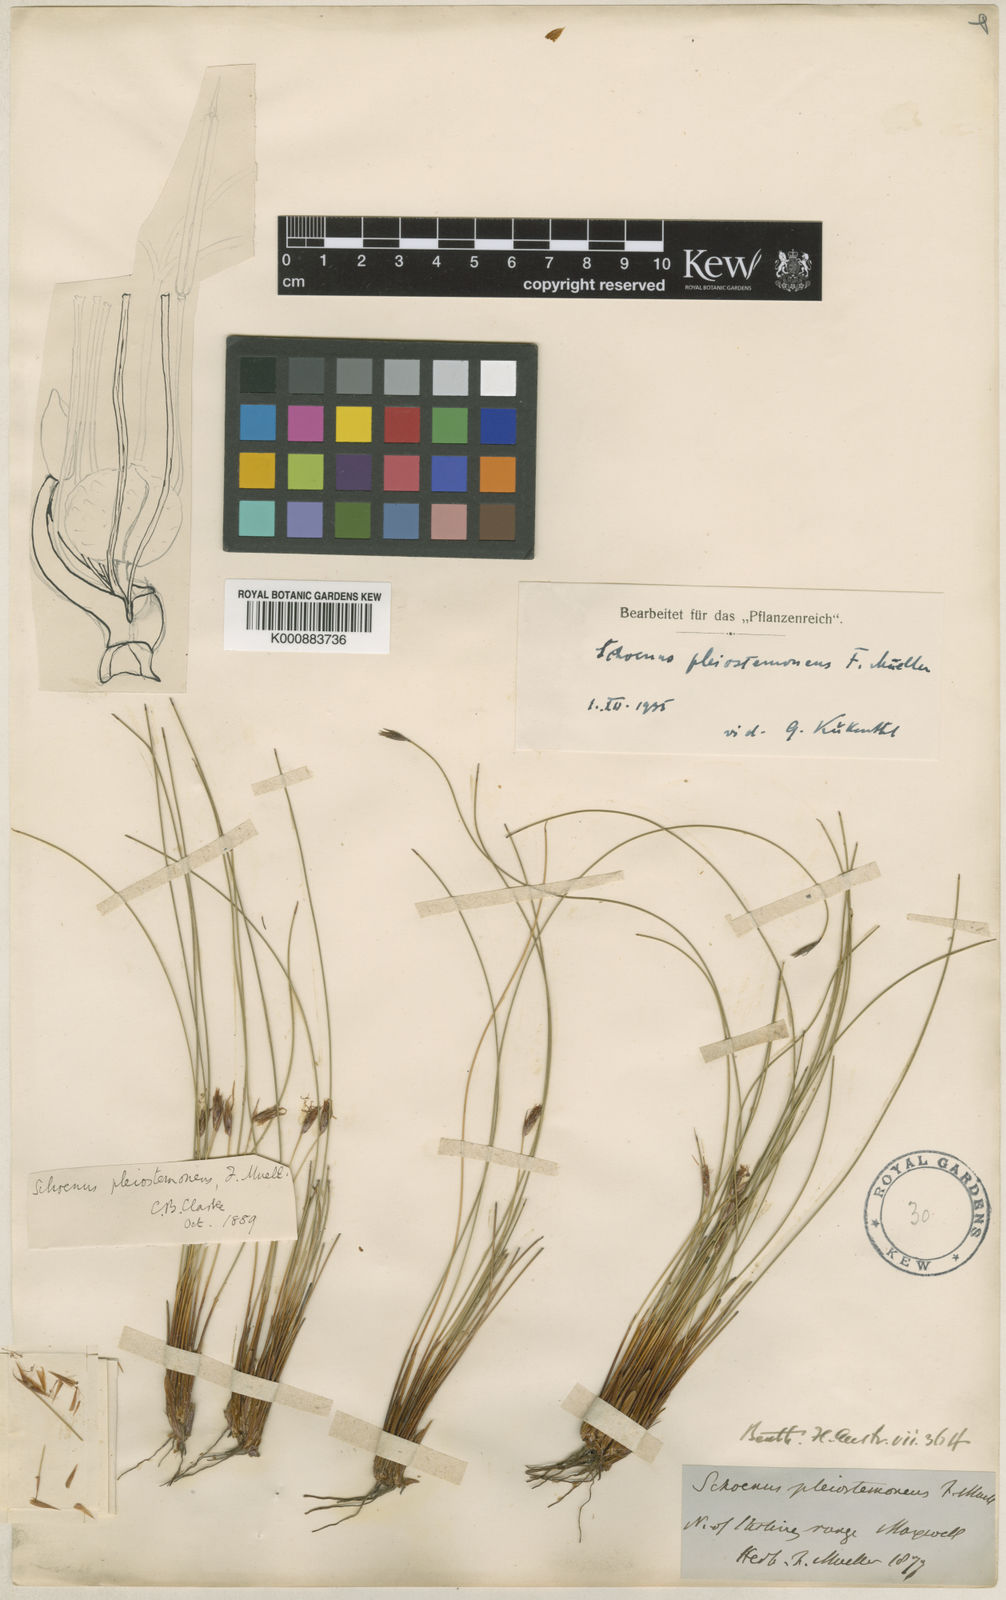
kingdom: Plantae
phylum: Tracheophyta
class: Liliopsida
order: Poales
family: Cyperaceae
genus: Schoenus
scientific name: Schoenus pleiostemoneus
